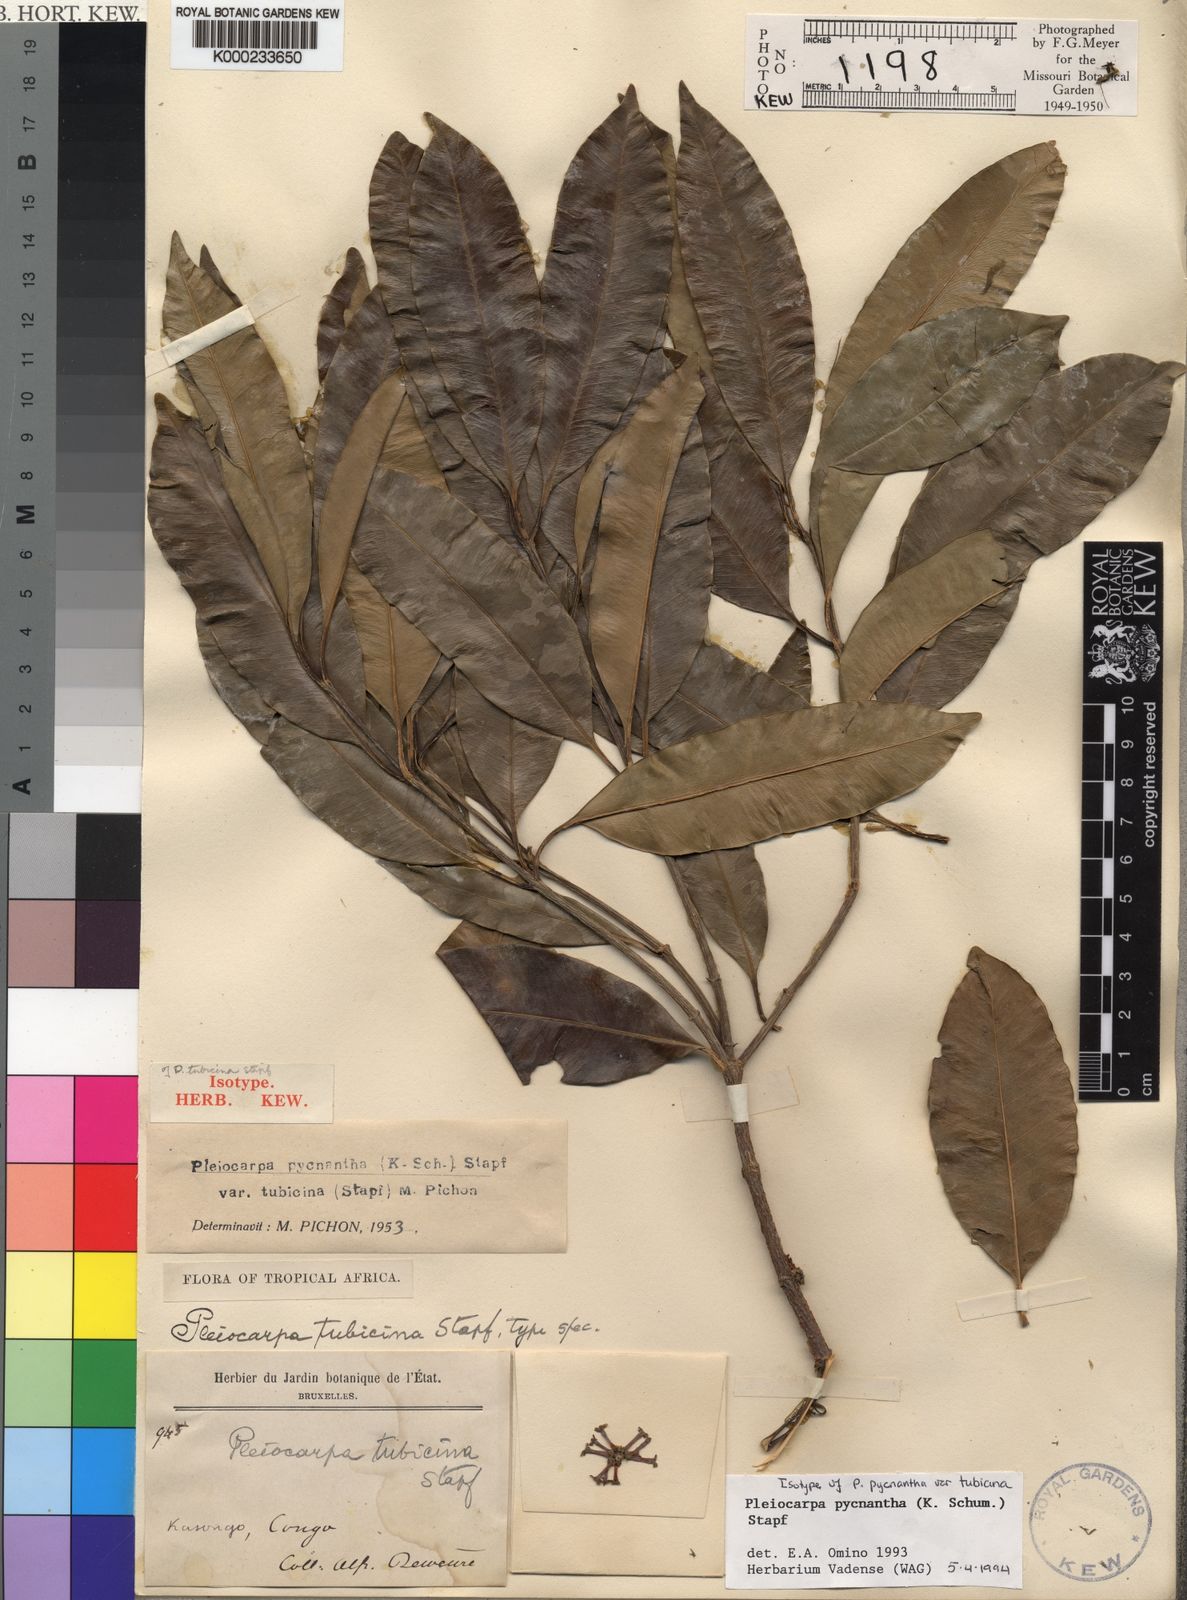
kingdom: Plantae
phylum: Tracheophyta
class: Magnoliopsida
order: Gentianales
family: Apocynaceae
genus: Pleiocarpa
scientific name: Pleiocarpa pycnantha
